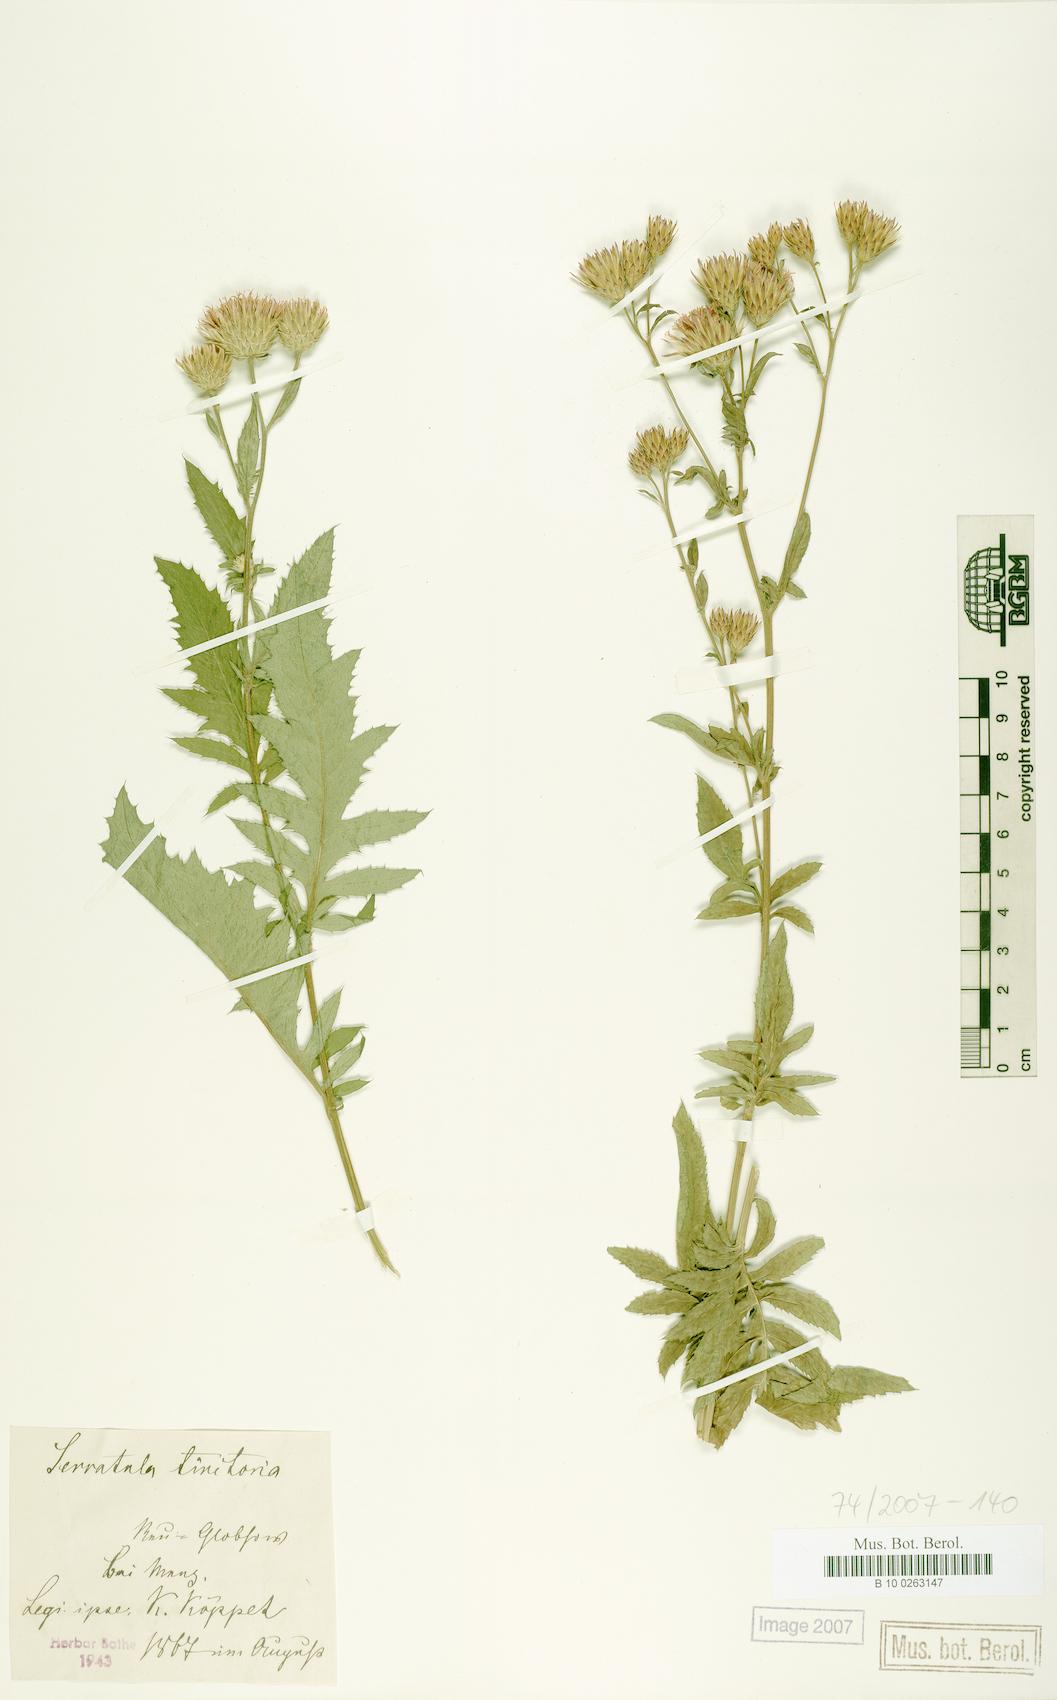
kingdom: Plantae
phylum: Tracheophyta
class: Magnoliopsida
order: Asterales
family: Asteraceae
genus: Serratula
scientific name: Serratula tinctoria
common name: Saw-wort
